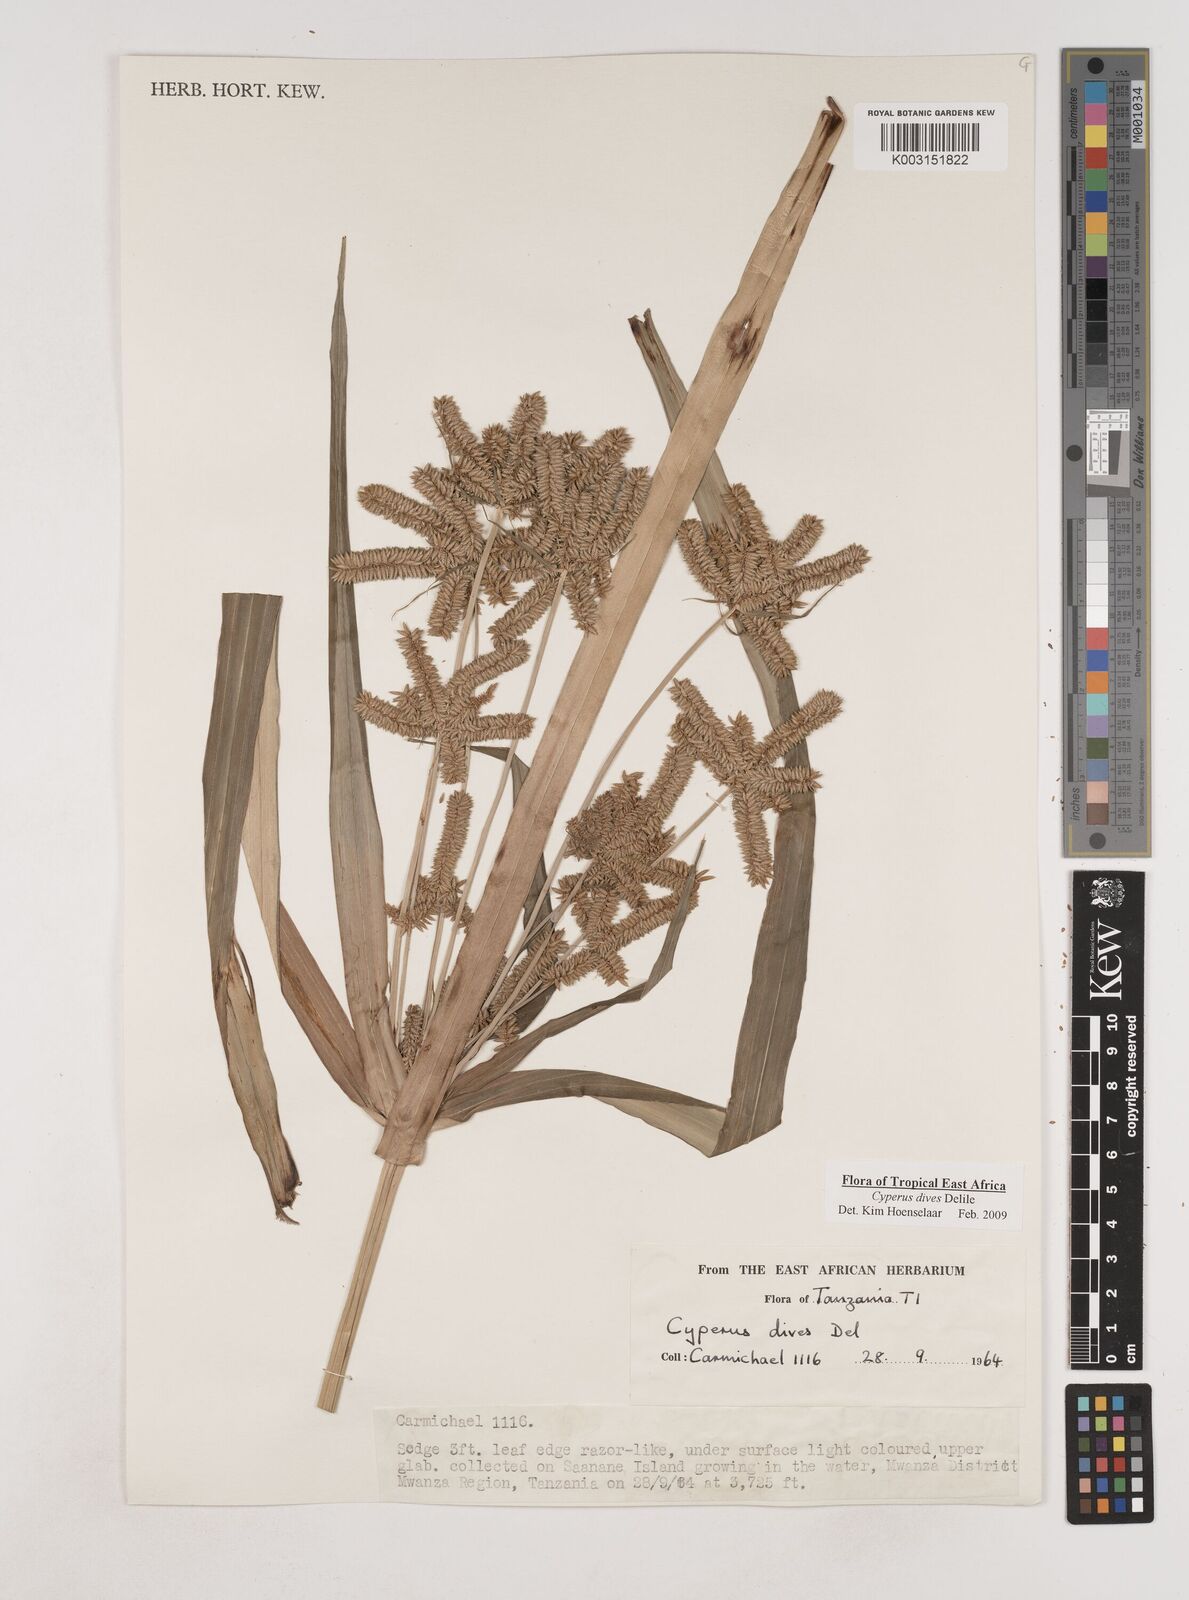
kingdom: Plantae
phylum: Tracheophyta
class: Liliopsida
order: Poales
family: Cyperaceae
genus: Cyperus
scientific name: Cyperus
